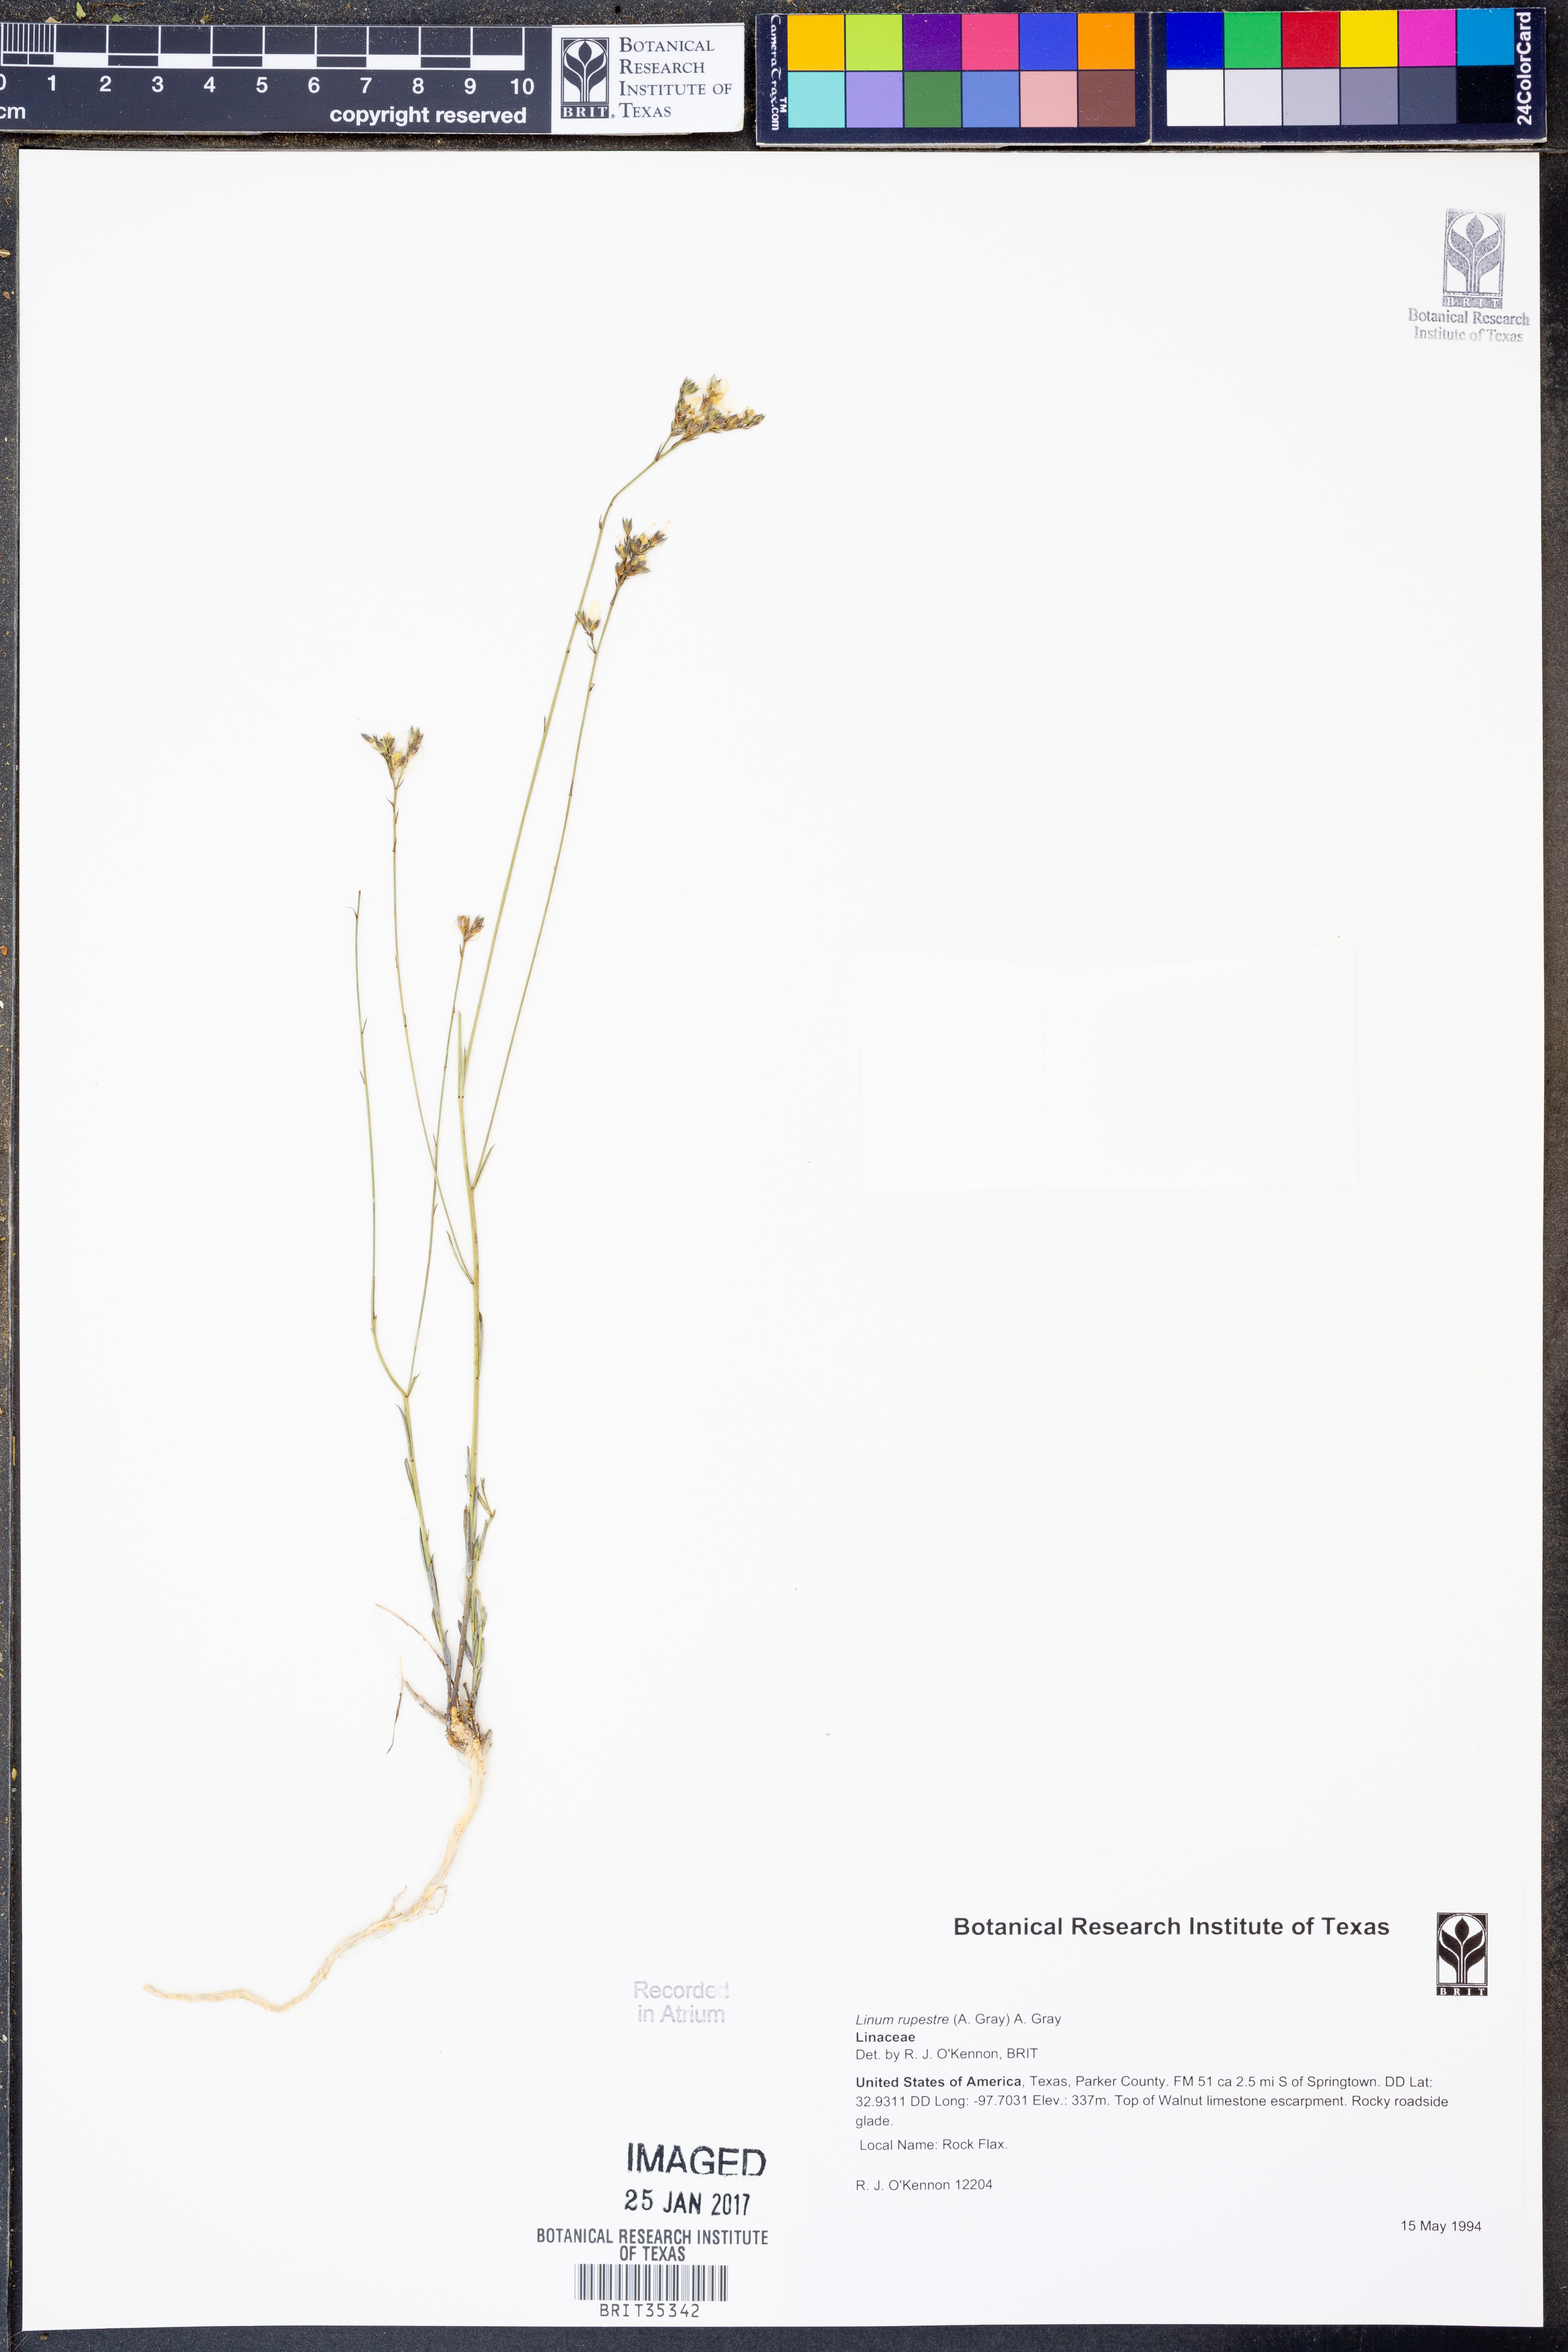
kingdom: Plantae
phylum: Tracheophyta
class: Magnoliopsida
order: Malpighiales
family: Linaceae
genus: Linum
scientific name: Linum rupestre
